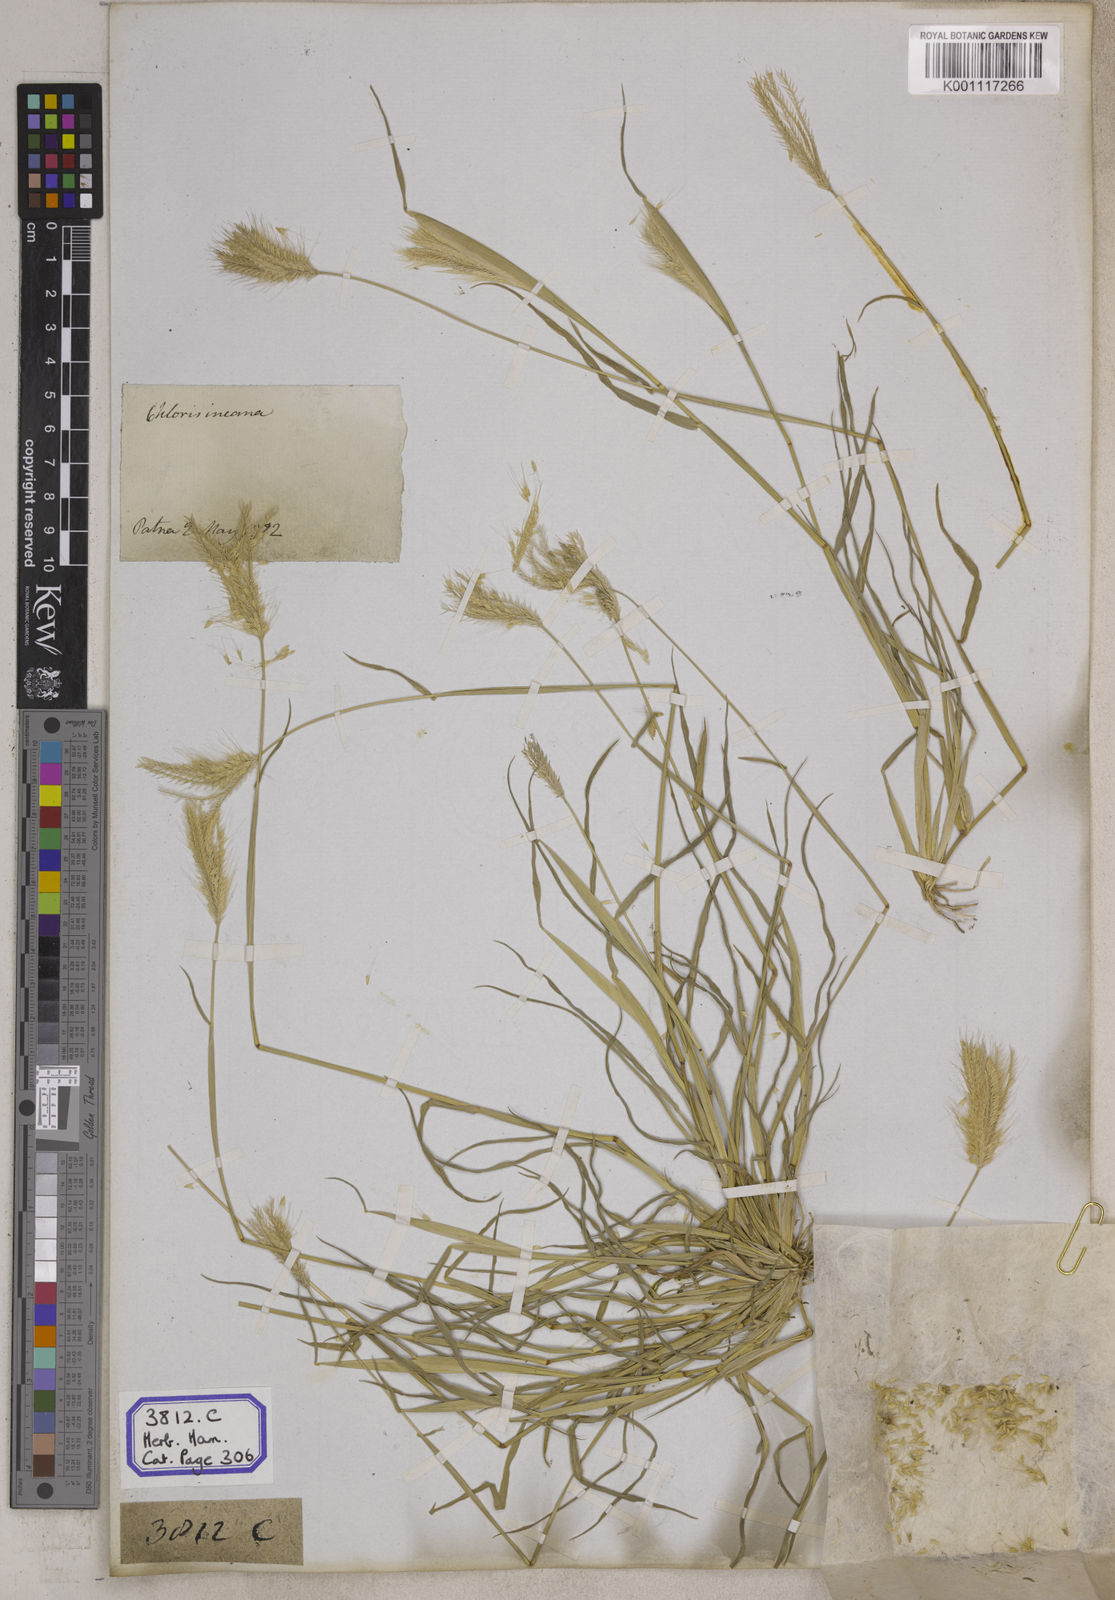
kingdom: Plantae
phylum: Tracheophyta
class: Liliopsida
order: Poales
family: Poaceae
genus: Chloris
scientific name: Chloris
